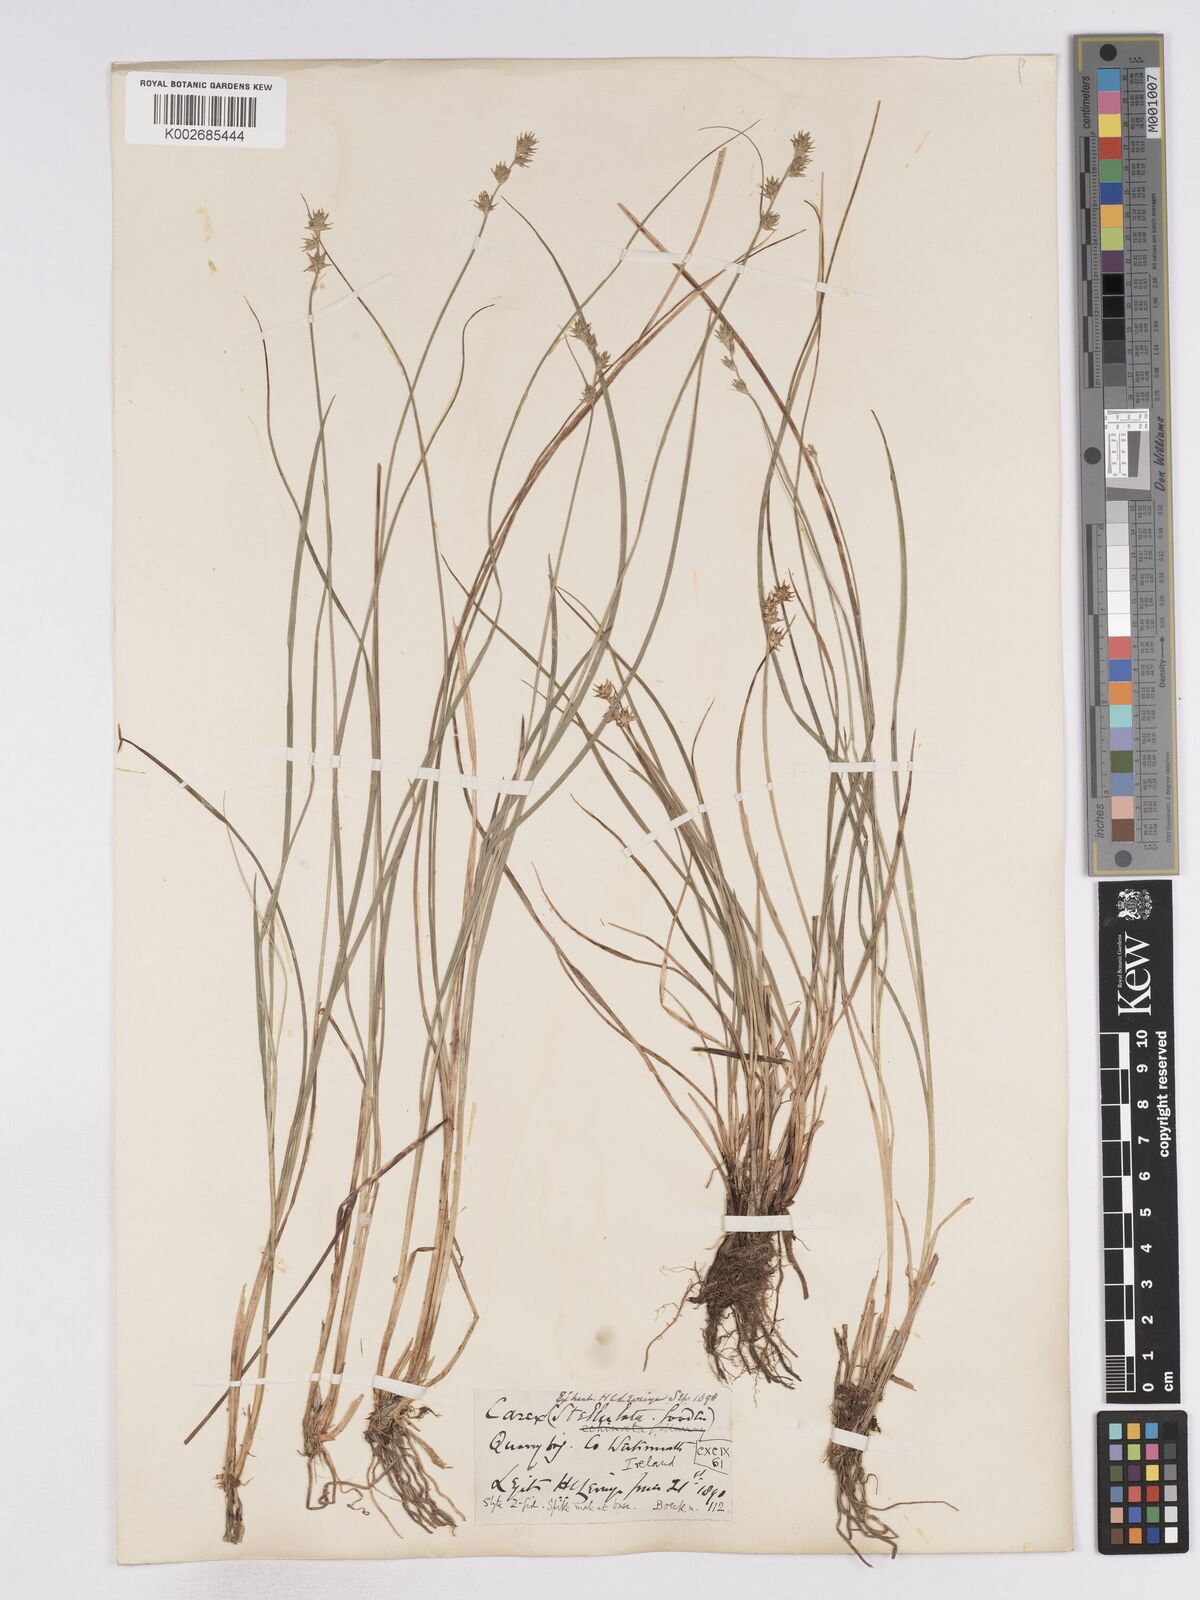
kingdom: Plantae
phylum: Tracheophyta
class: Liliopsida
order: Poales
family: Cyperaceae
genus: Carex
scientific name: Carex echinata
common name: Star sedge
